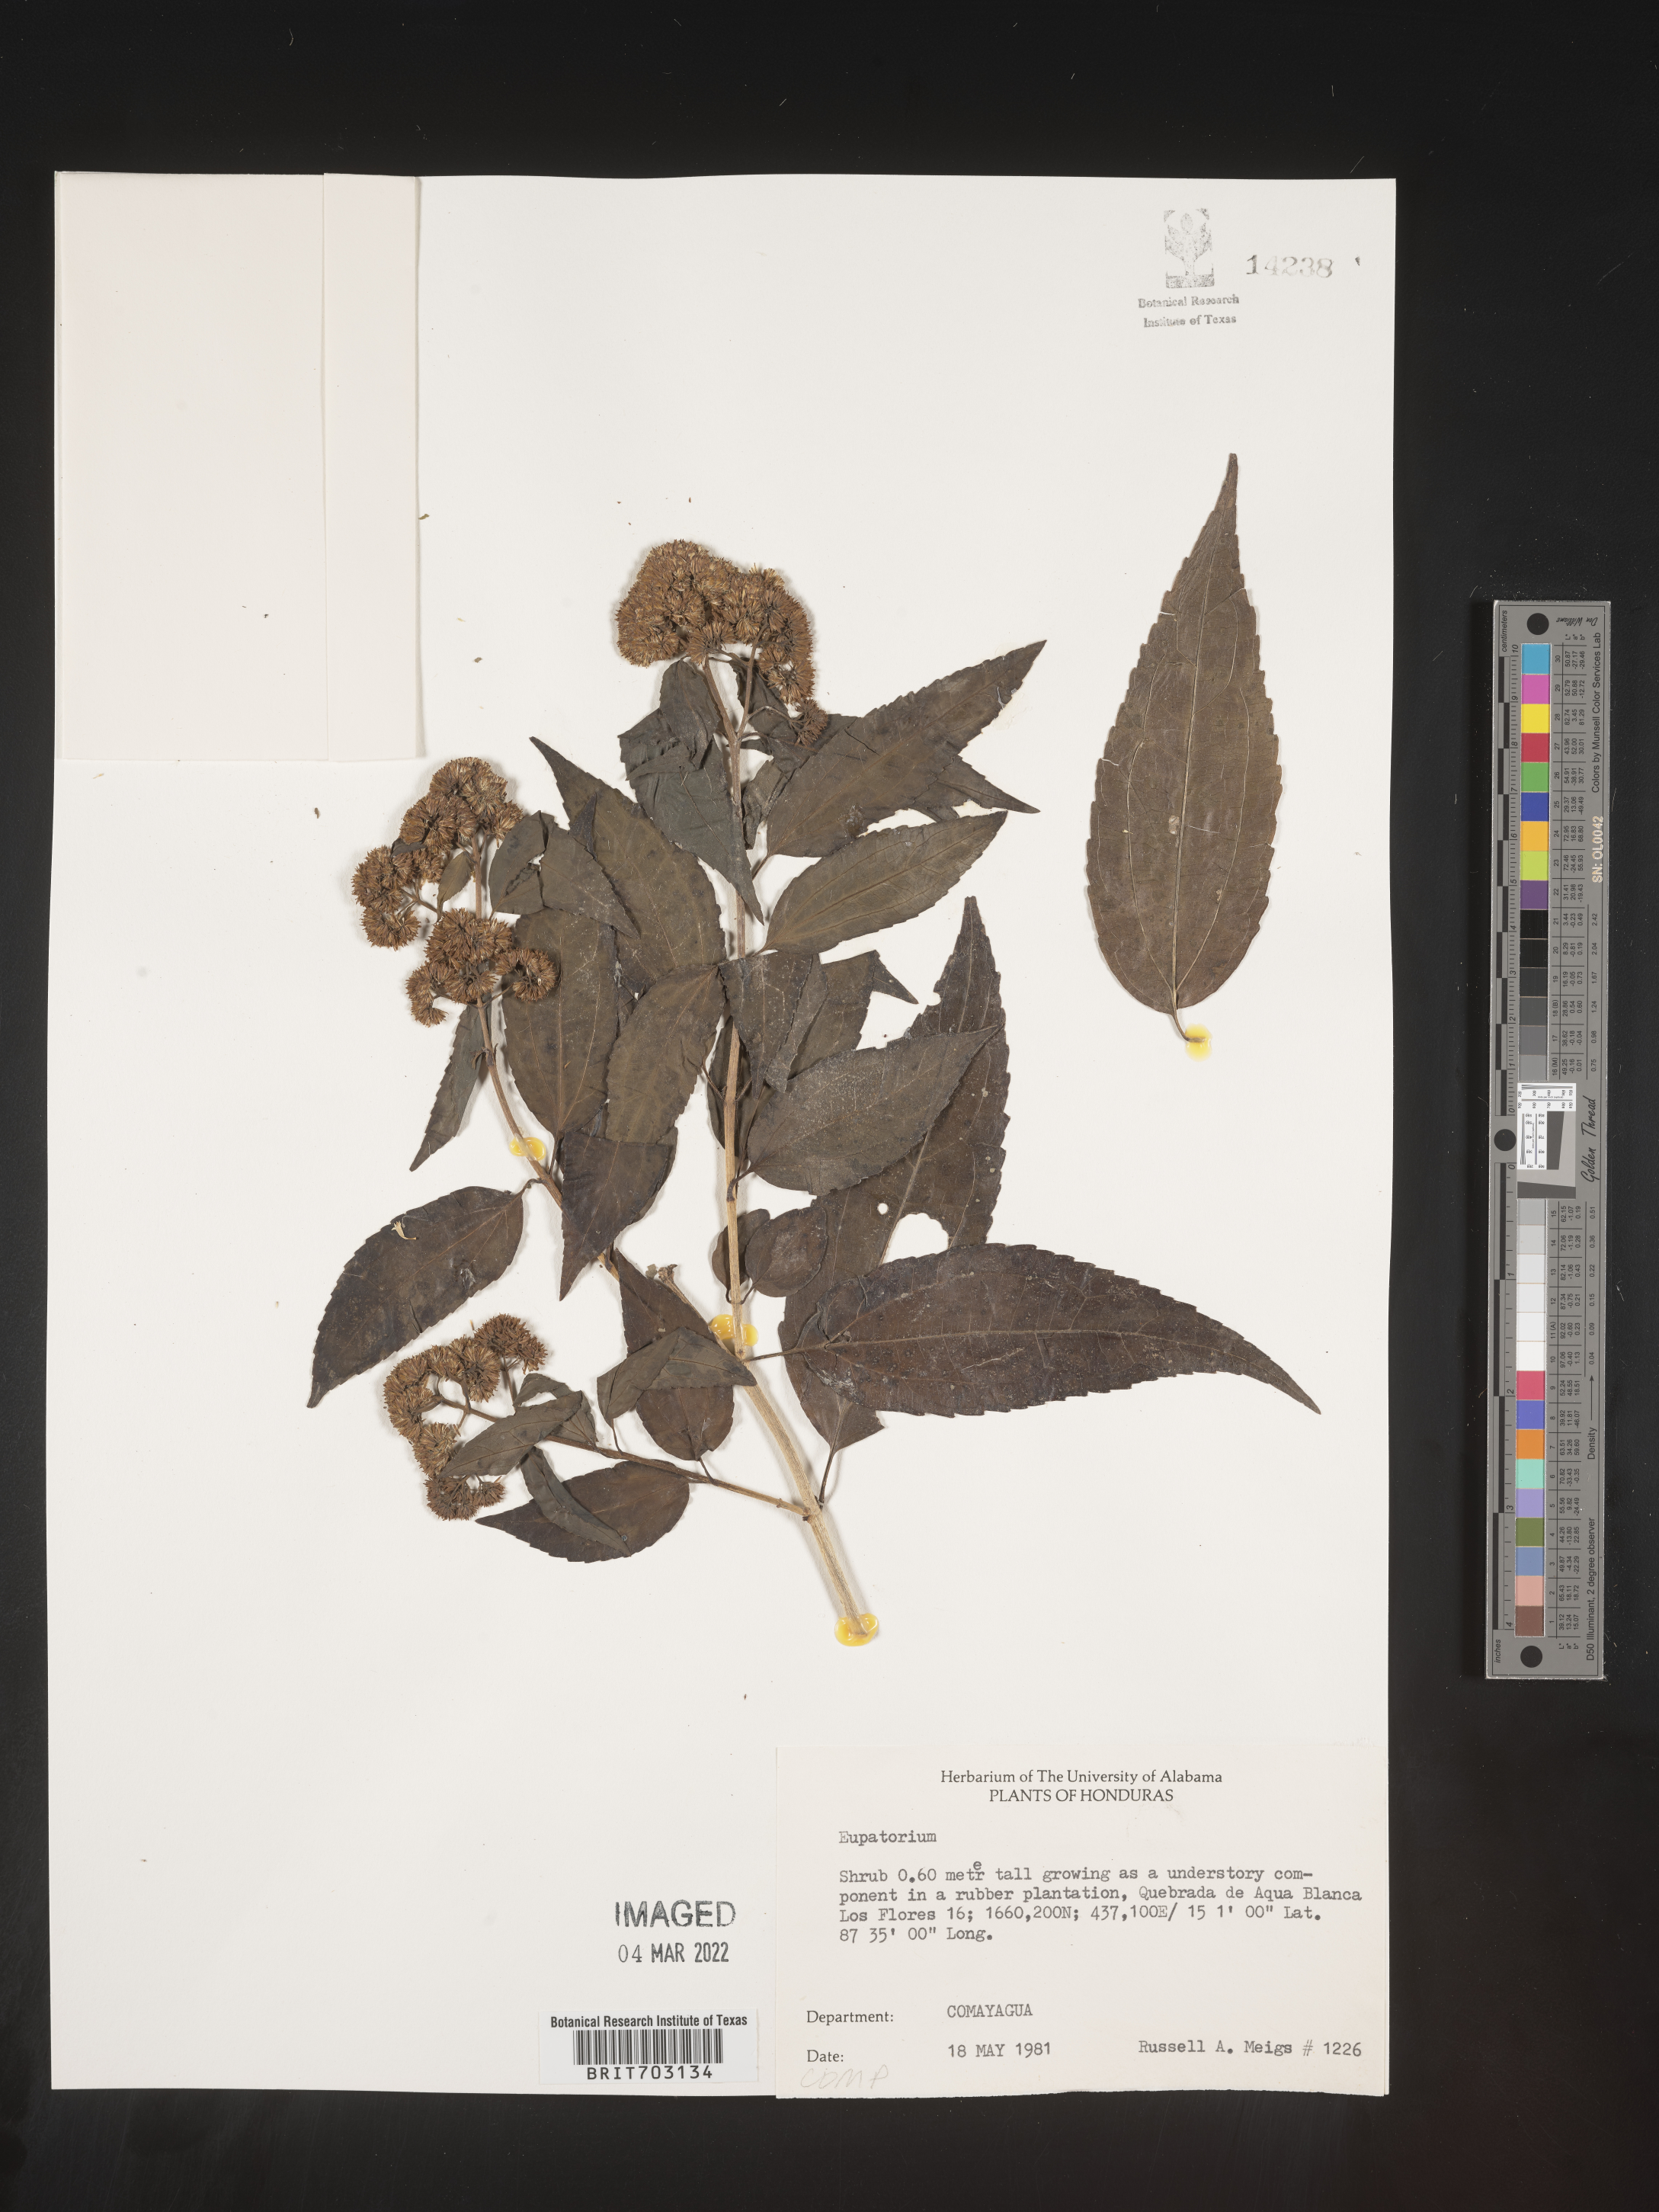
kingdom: Plantae
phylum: Tracheophyta
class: Magnoliopsida
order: Asterales
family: Asteraceae
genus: Eupatorium
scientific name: Eupatorium
